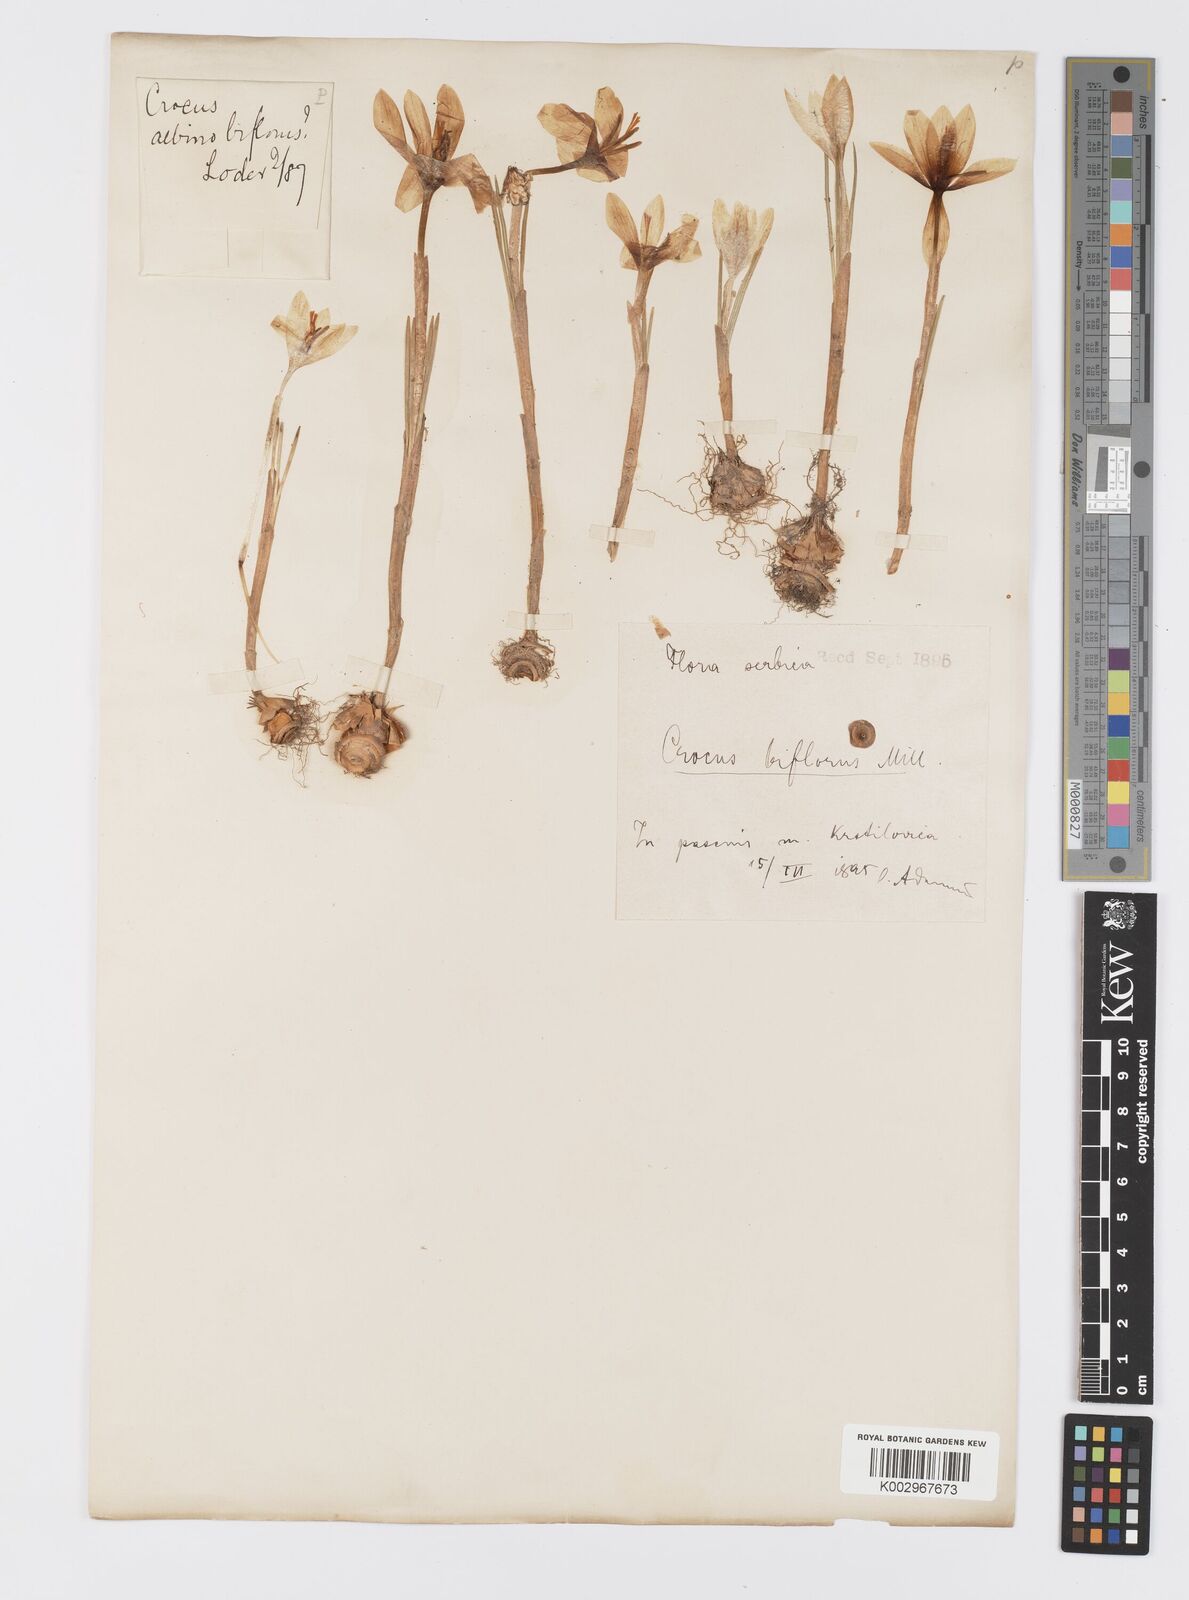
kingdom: Plantae
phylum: Tracheophyta
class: Liliopsida
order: Asparagales
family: Iridaceae
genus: Crocus
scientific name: Crocus alexandri
